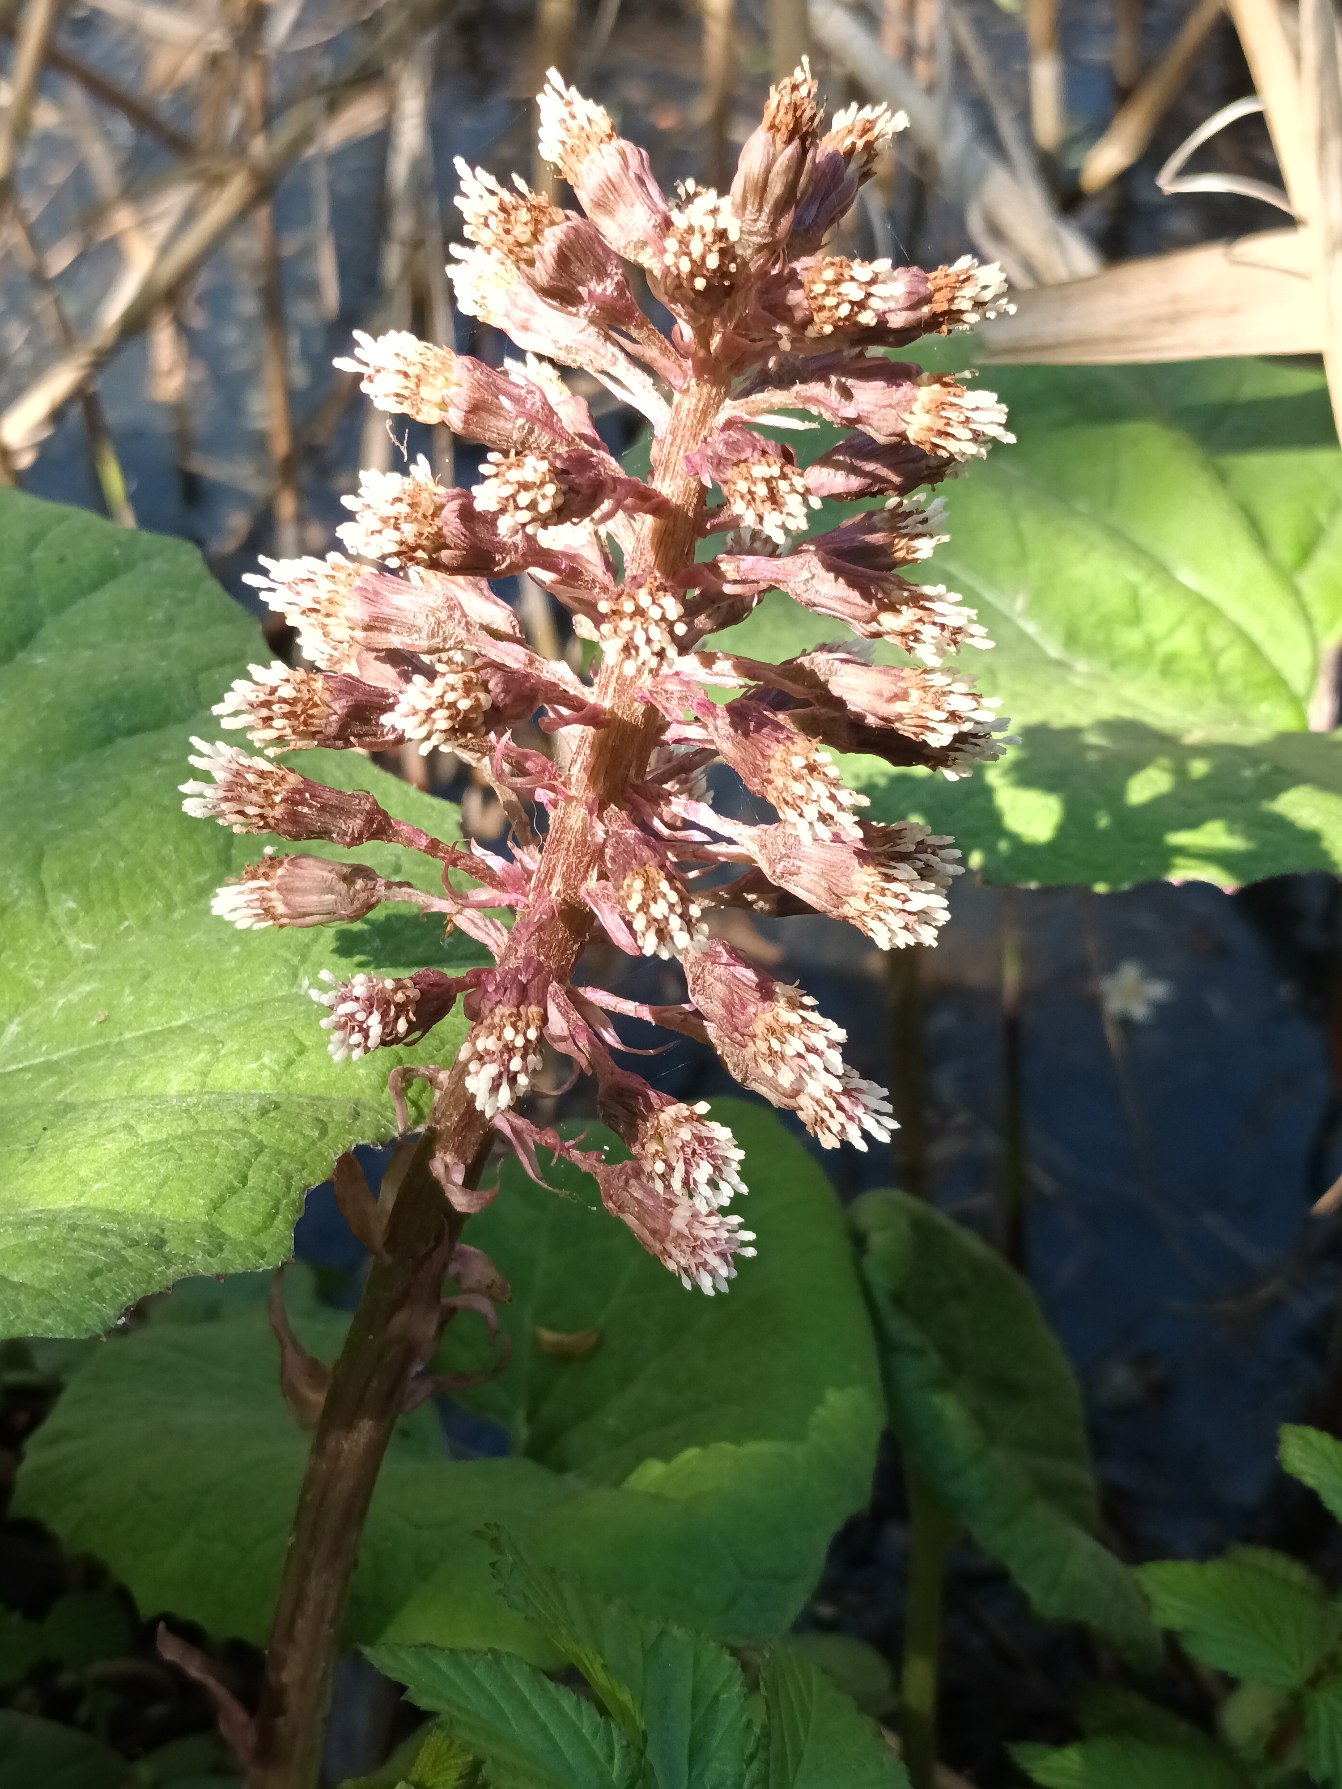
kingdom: Plantae
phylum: Tracheophyta
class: Magnoliopsida
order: Asterales
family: Asteraceae
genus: Petasites
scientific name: Petasites hybridus
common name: Rød hestehov
